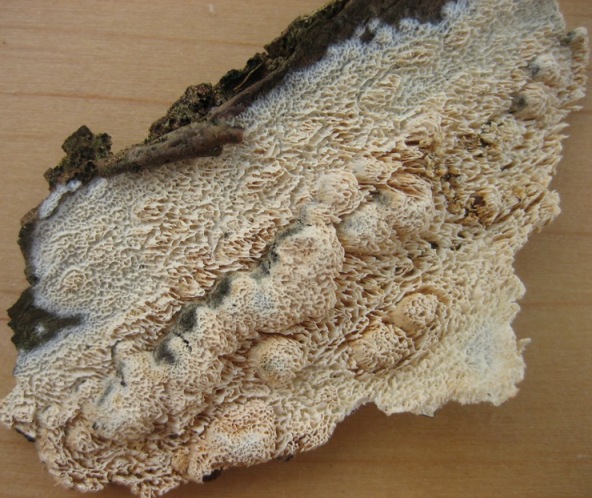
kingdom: Fungi
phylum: Basidiomycota
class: Agaricomycetes
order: Hymenochaetales
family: Schizoporaceae
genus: Schizopora
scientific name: Schizopora paradoxa
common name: hvid tandsvamp
